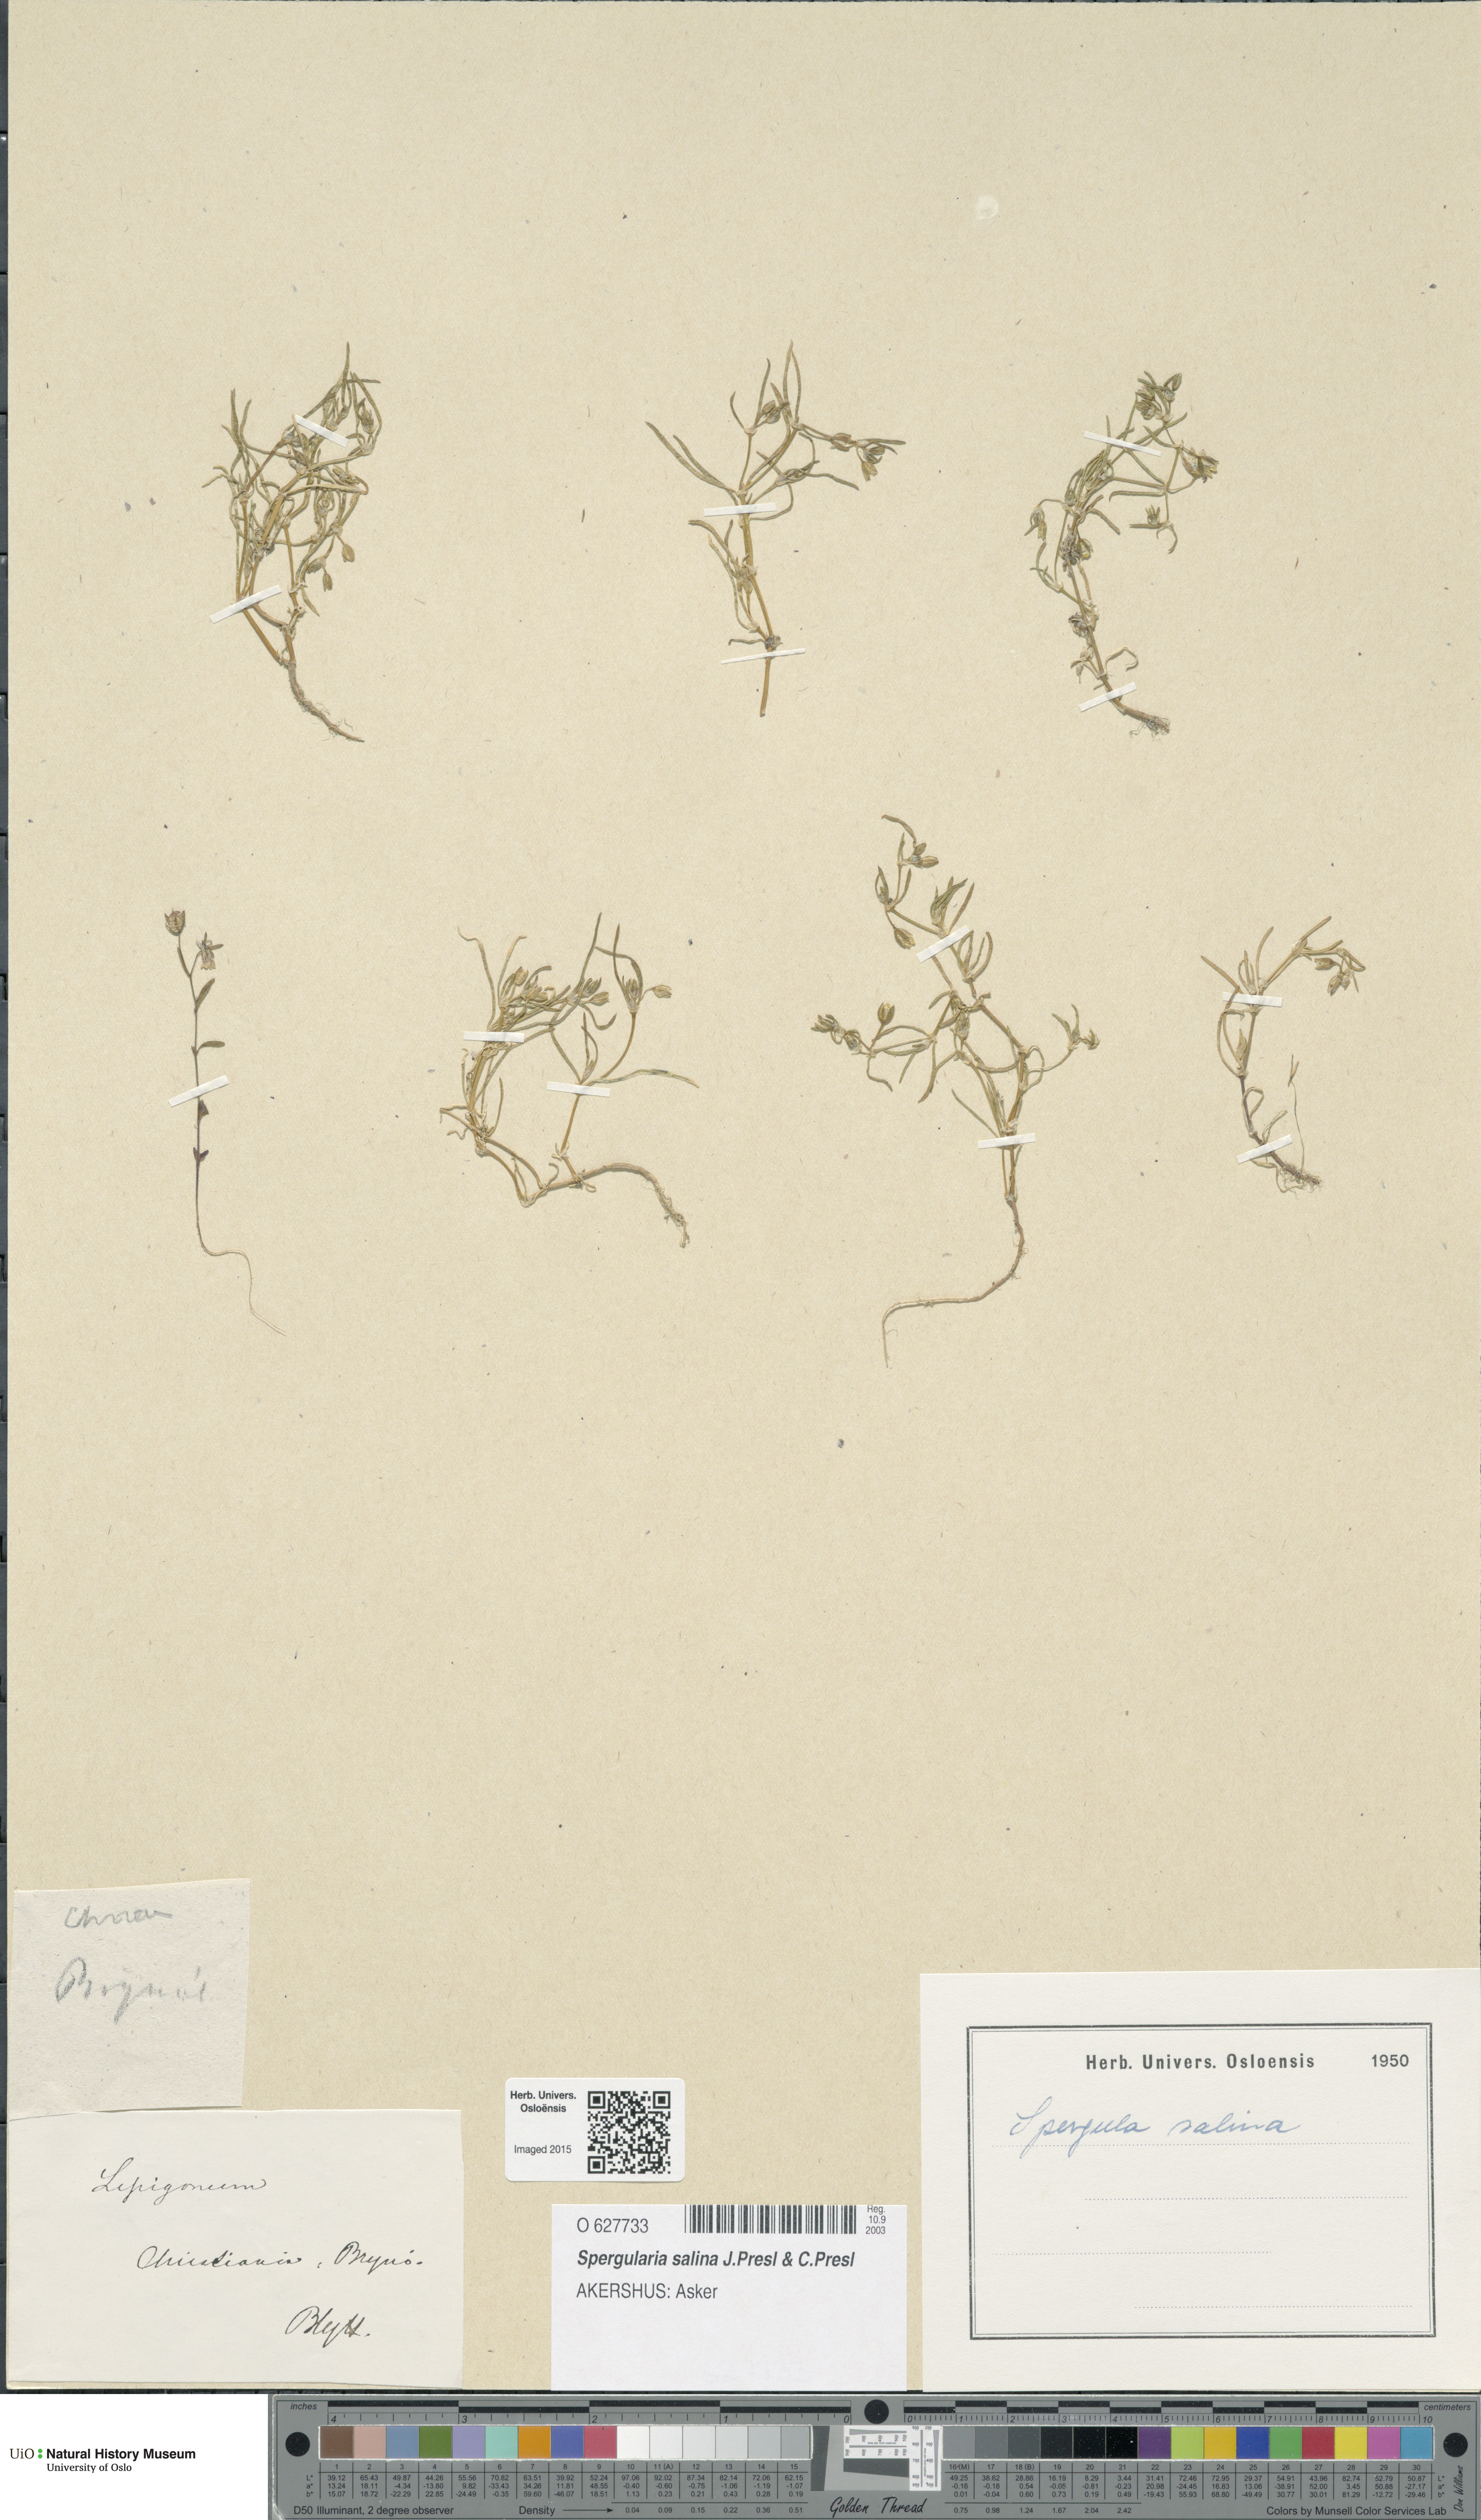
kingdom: Plantae
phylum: Tracheophyta
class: Magnoliopsida
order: Caryophyllales
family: Caryophyllaceae
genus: Spergularia
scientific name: Spergularia marina
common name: Lesser sea-spurrey
